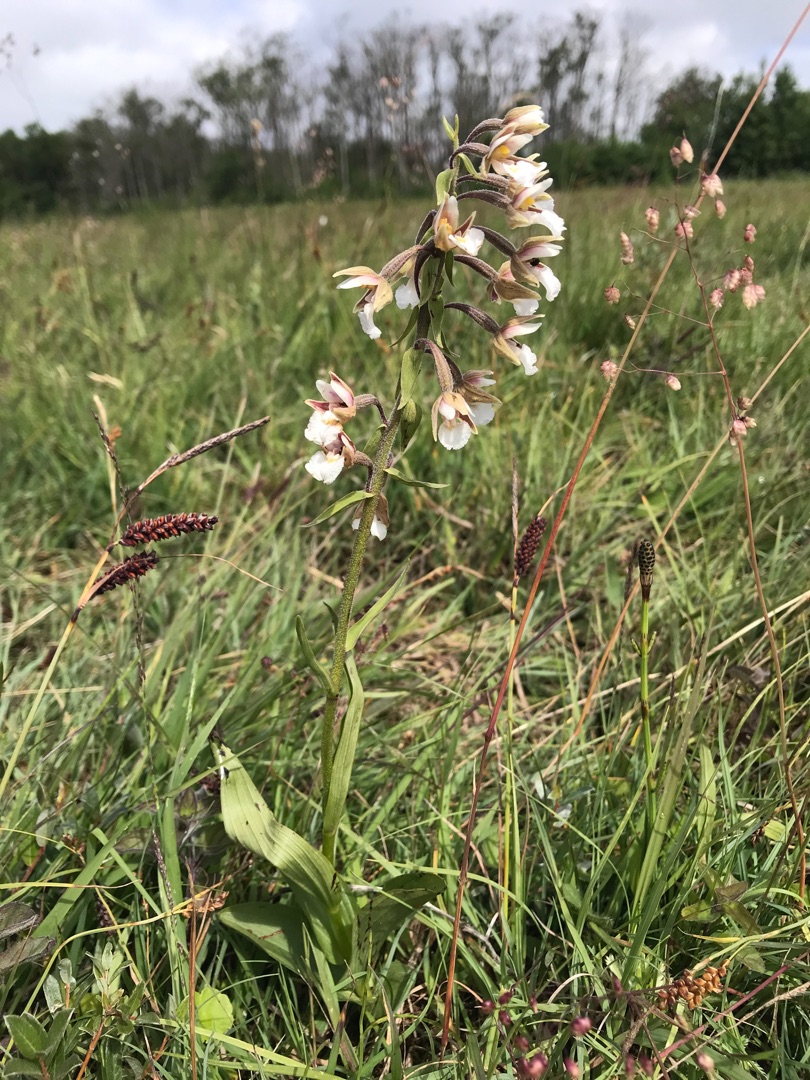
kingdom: Plantae
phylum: Tracheophyta
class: Liliopsida
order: Asparagales
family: Orchidaceae
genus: Epipactis
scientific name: Epipactis palustris
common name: Sump-hullæbe
